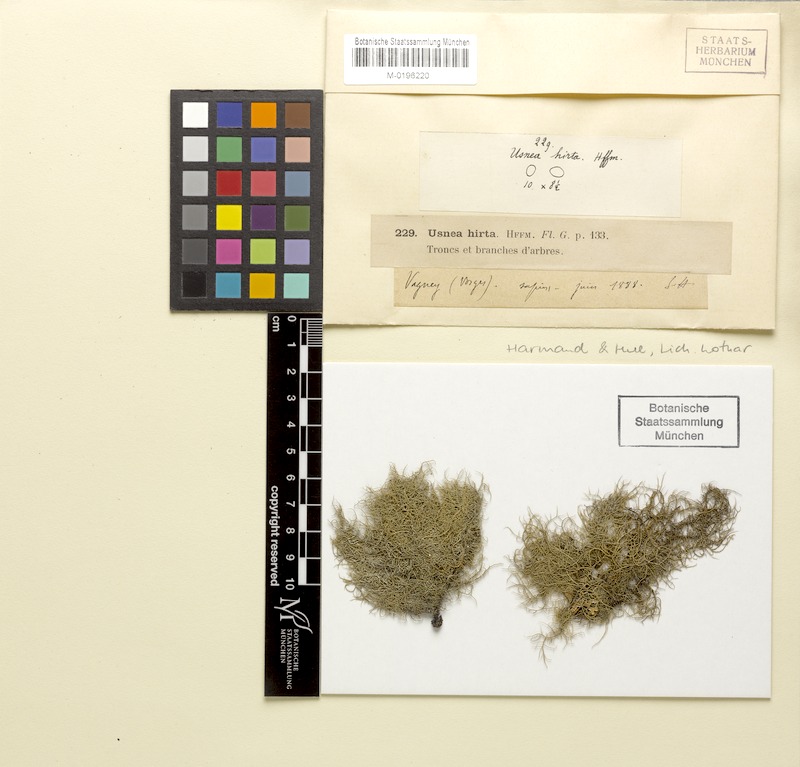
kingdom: Fungi
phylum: Ascomycota
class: Lecanoromycetes
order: Lecanorales
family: Parmeliaceae
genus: Usnea
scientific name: Usnea hirta
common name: Bristly beard lichen
